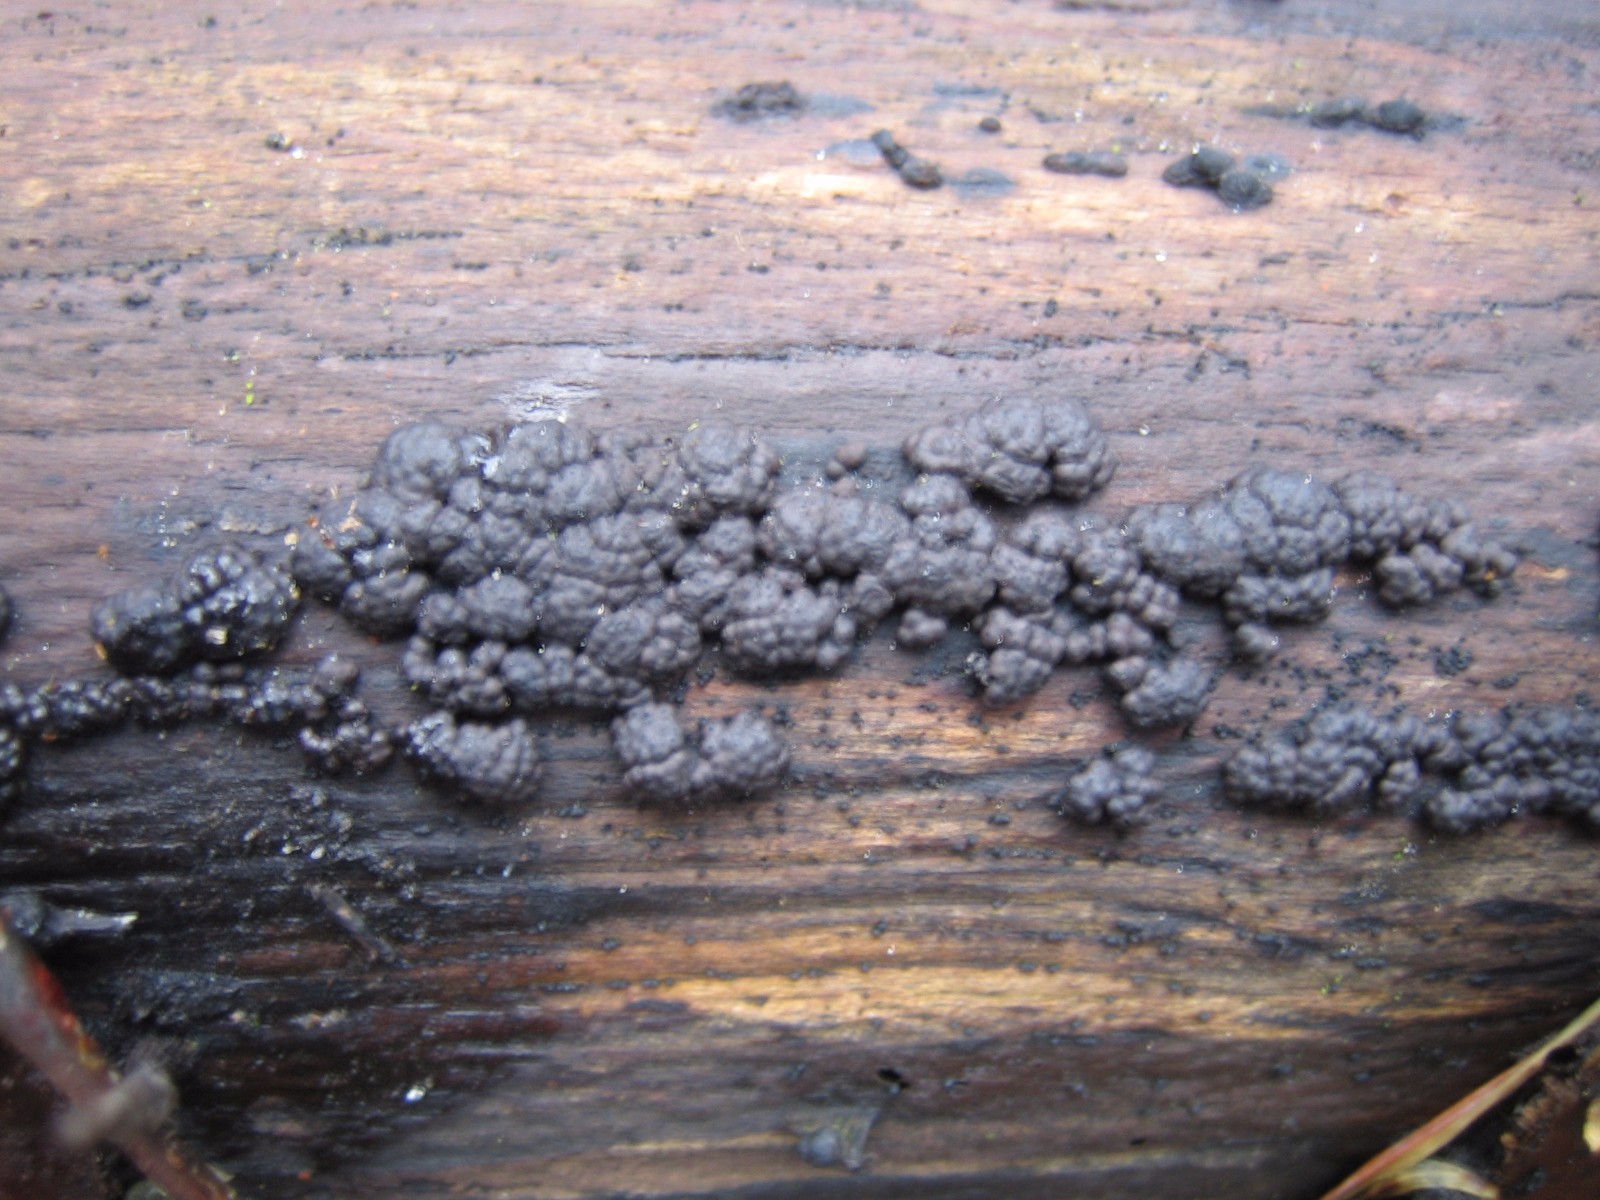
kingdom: Fungi
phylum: Ascomycota
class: Sordariomycetes
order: Xylariales
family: Hypoxylaceae
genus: Jackrogersella
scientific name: Jackrogersella cohaerens
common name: sammenflydende kulbær
